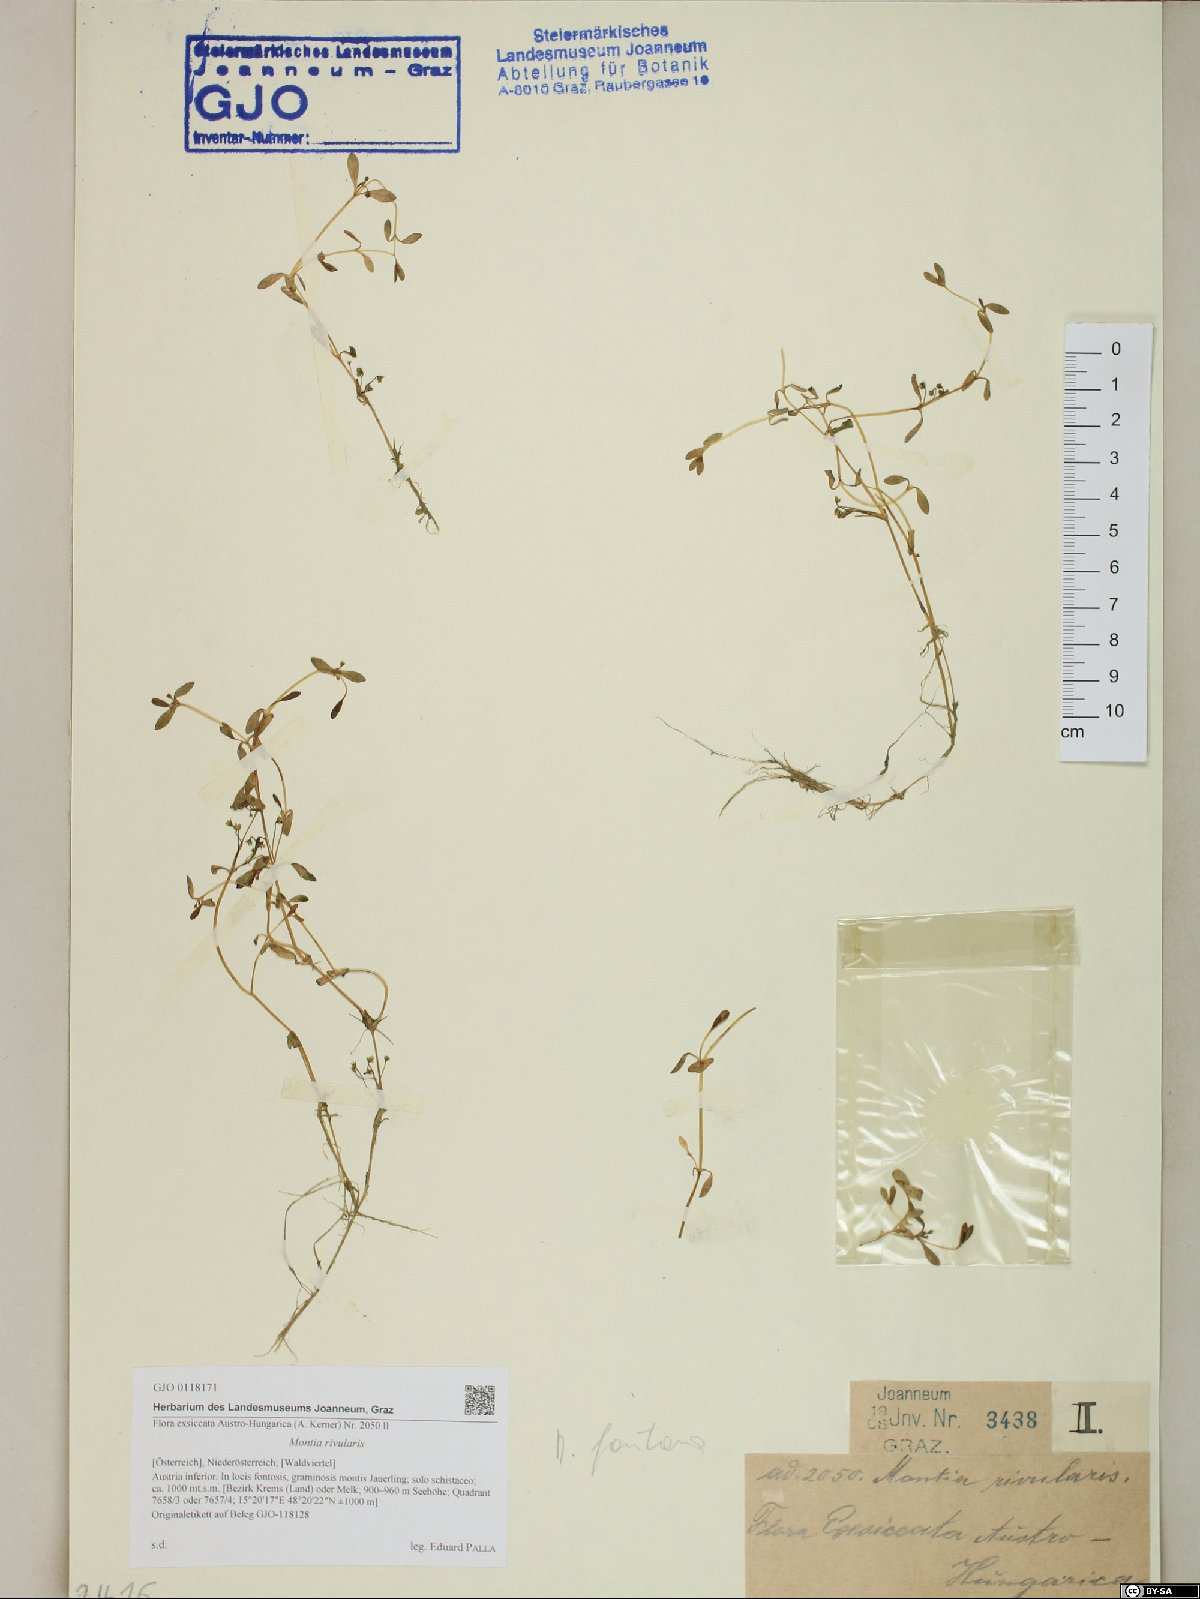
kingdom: Plantae
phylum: Tracheophyta
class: Magnoliopsida
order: Caryophyllales
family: Montiaceae
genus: Montia
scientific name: Montia fontana
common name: Blinks
